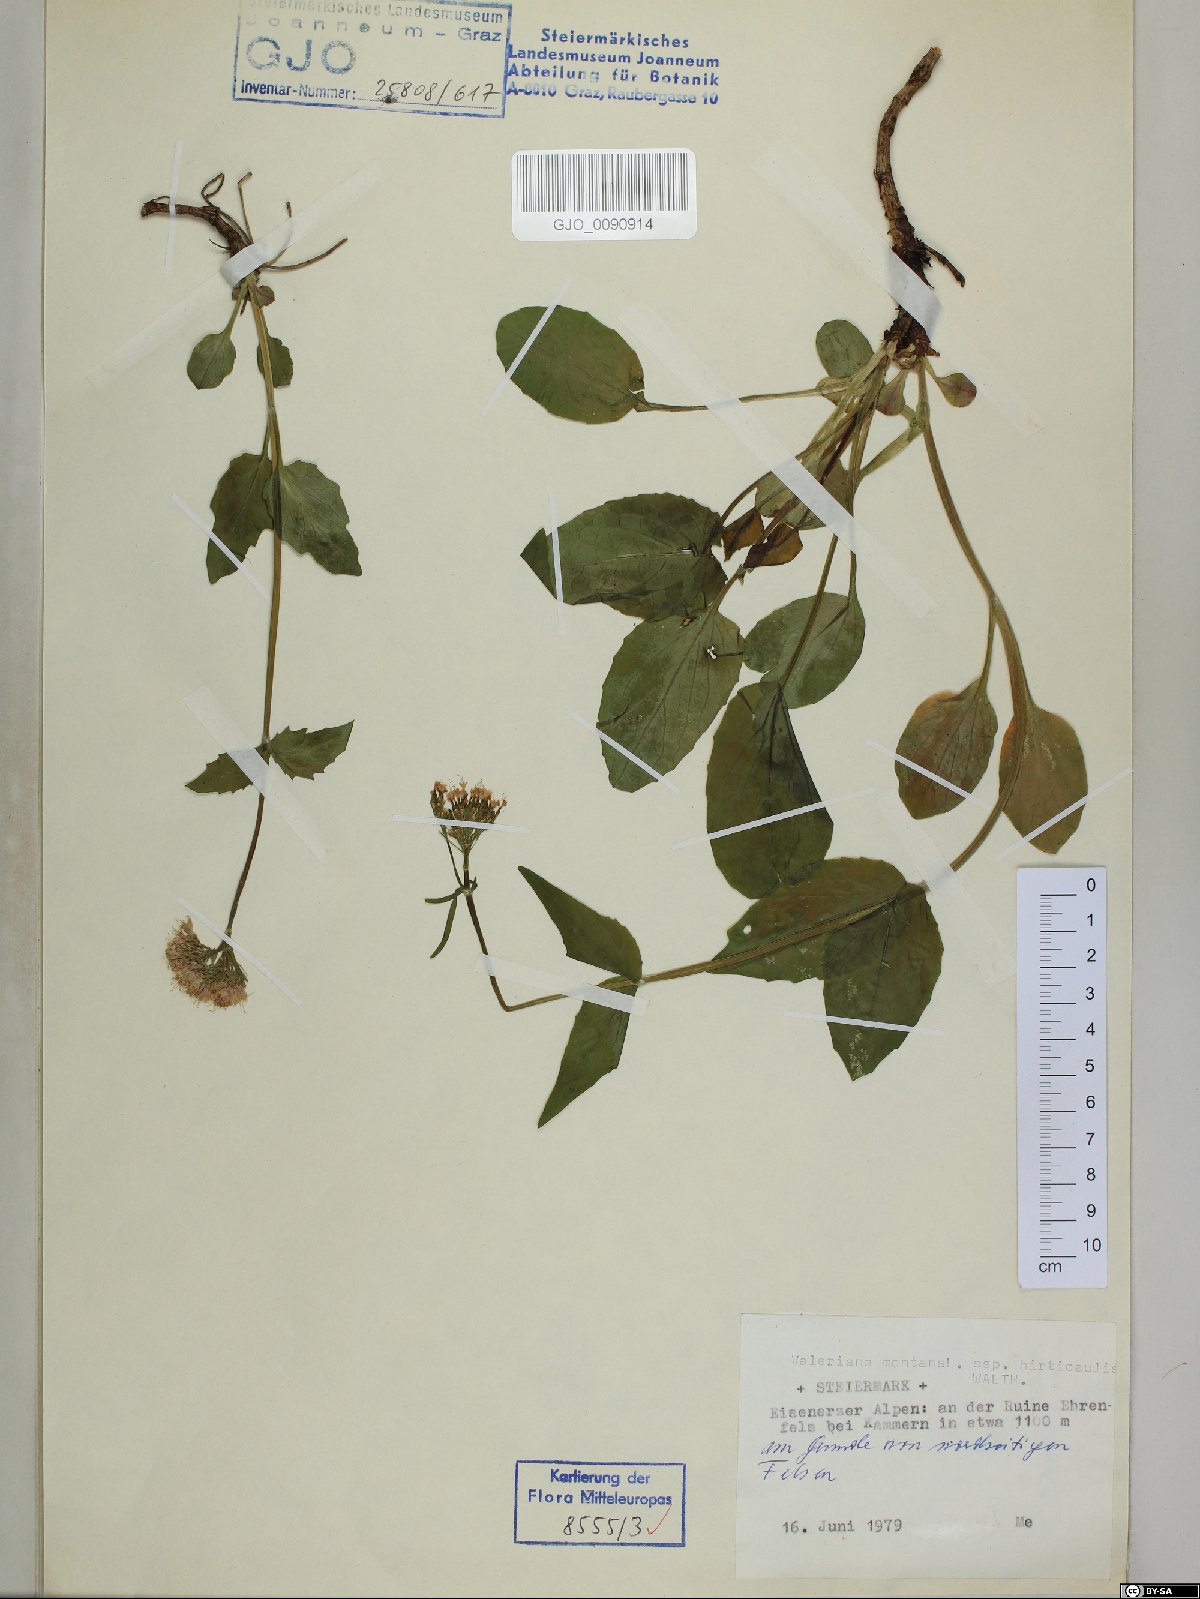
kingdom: Plantae
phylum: Tracheophyta
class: Magnoliopsida
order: Dipsacales
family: Caprifoliaceae
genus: Valeriana
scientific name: Valeriana montana
